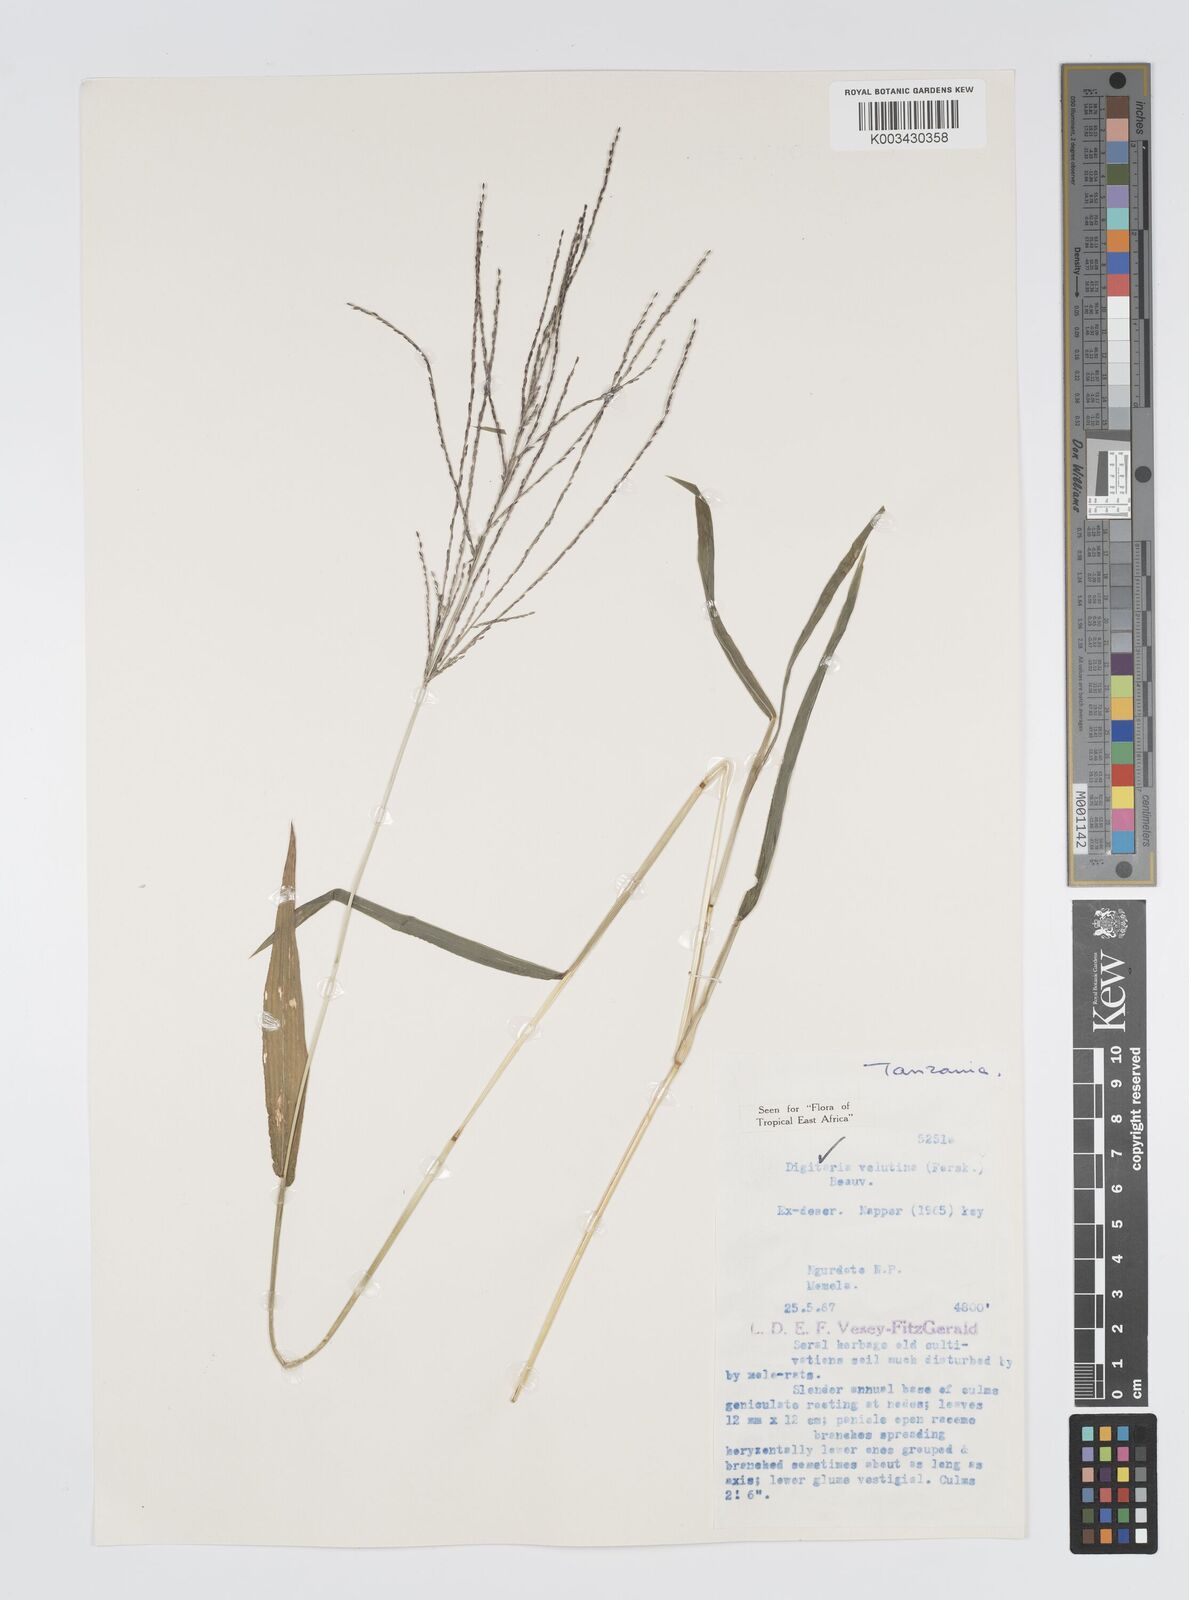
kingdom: Plantae
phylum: Tracheophyta
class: Liliopsida
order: Poales
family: Poaceae
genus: Digitaria
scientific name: Digitaria velutina
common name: Long-plume finger grass
